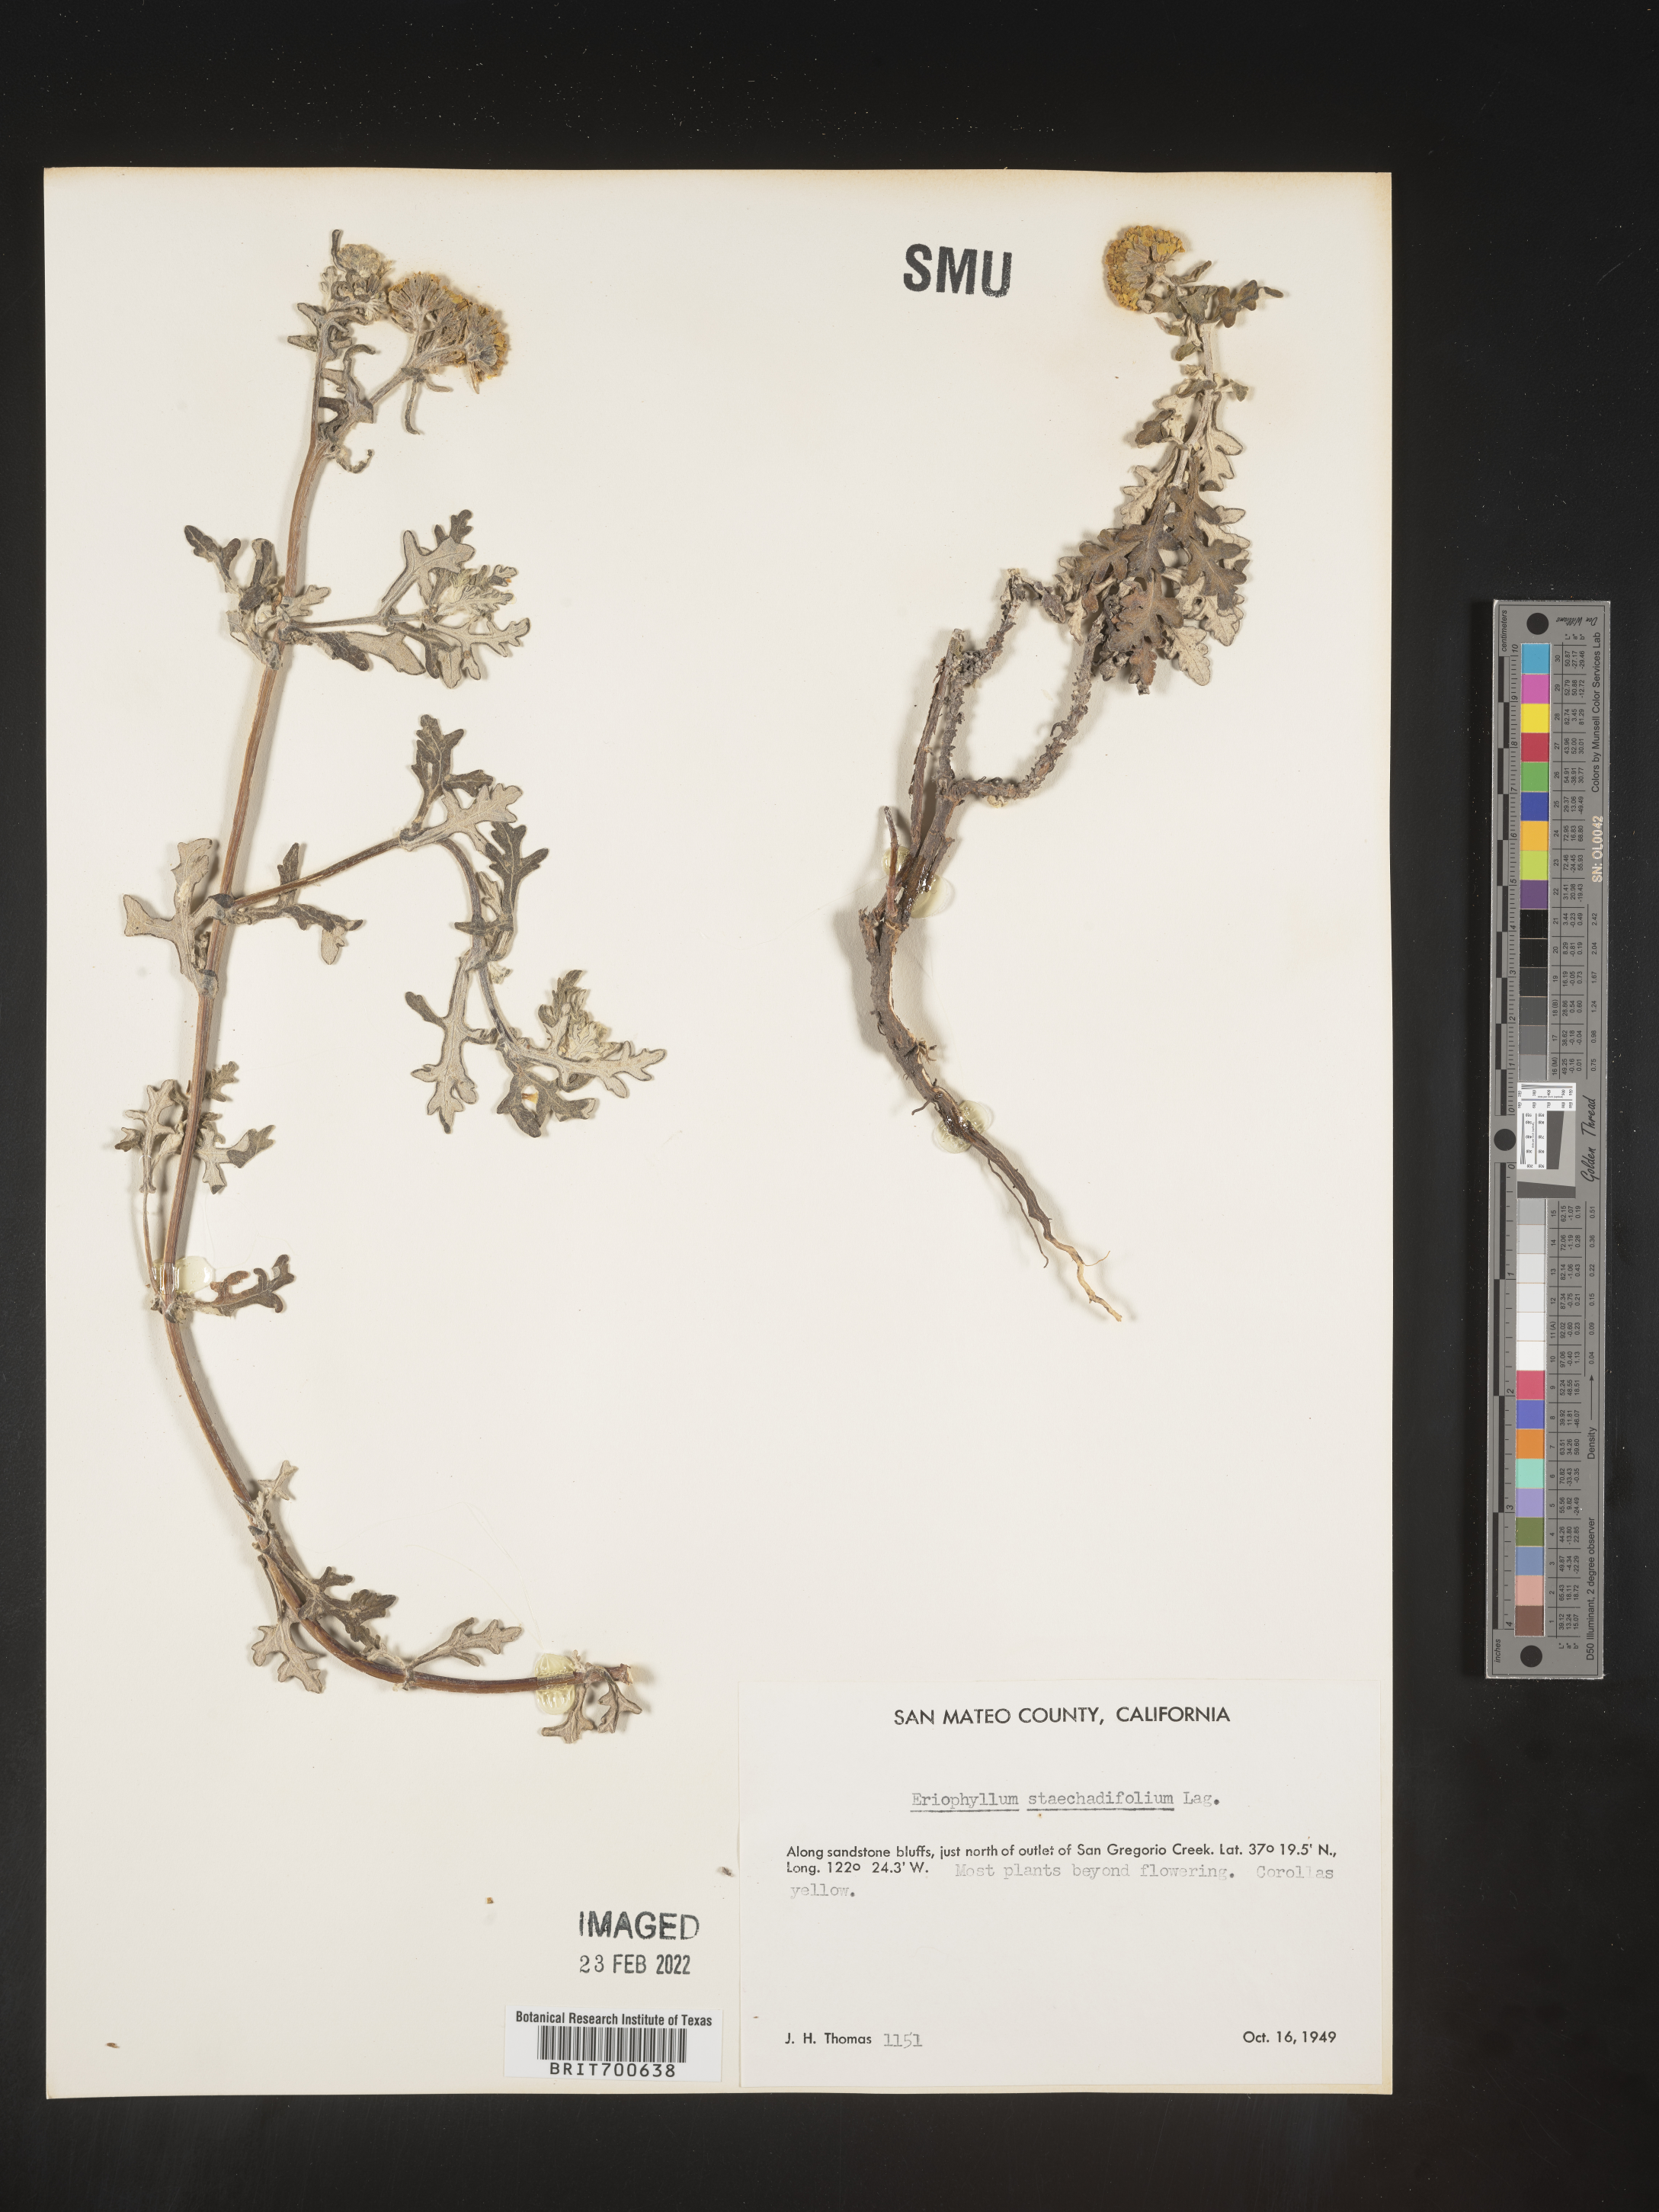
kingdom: Plantae
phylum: Tracheophyta
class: Magnoliopsida
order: Asterales
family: Asteraceae
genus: Eriophyllum
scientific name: Eriophyllum staechadifolium
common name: Lizardtail
